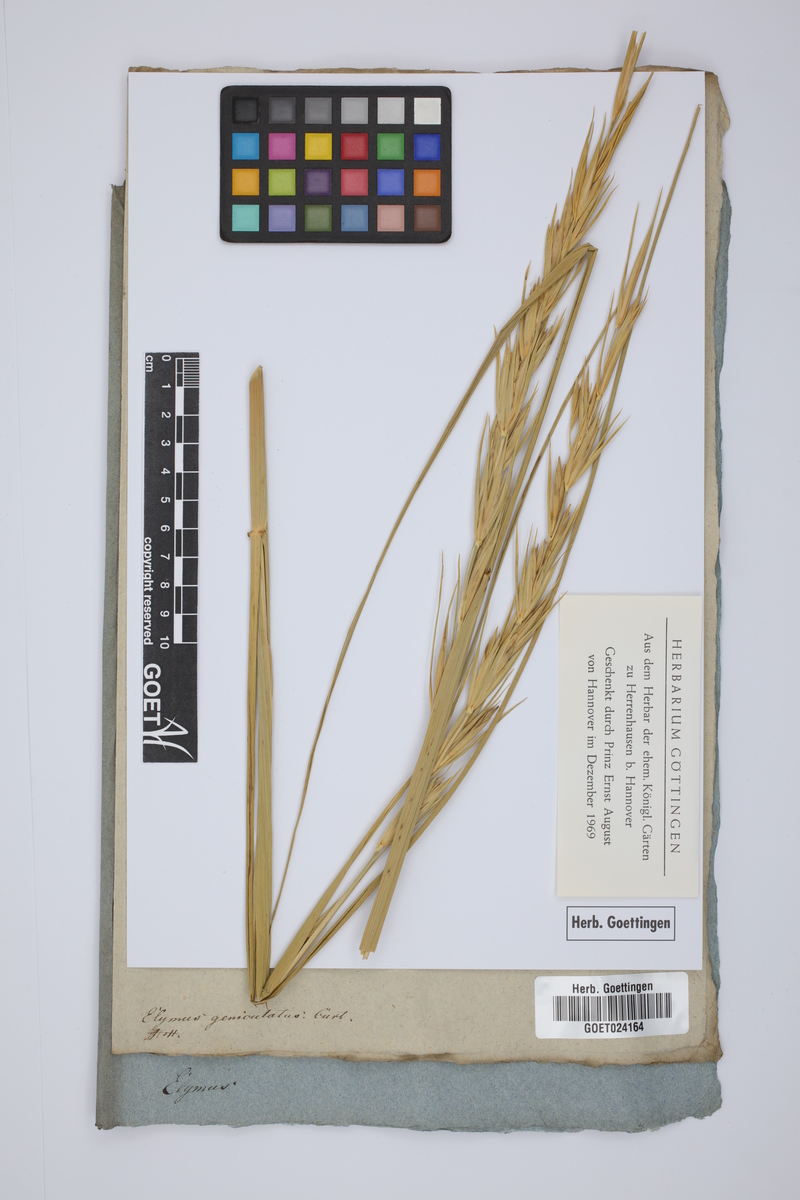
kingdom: Plantae
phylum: Tracheophyta
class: Liliopsida
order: Poales
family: Poaceae
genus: Leymus
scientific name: Leymus arenarius
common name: Lyme-grass
